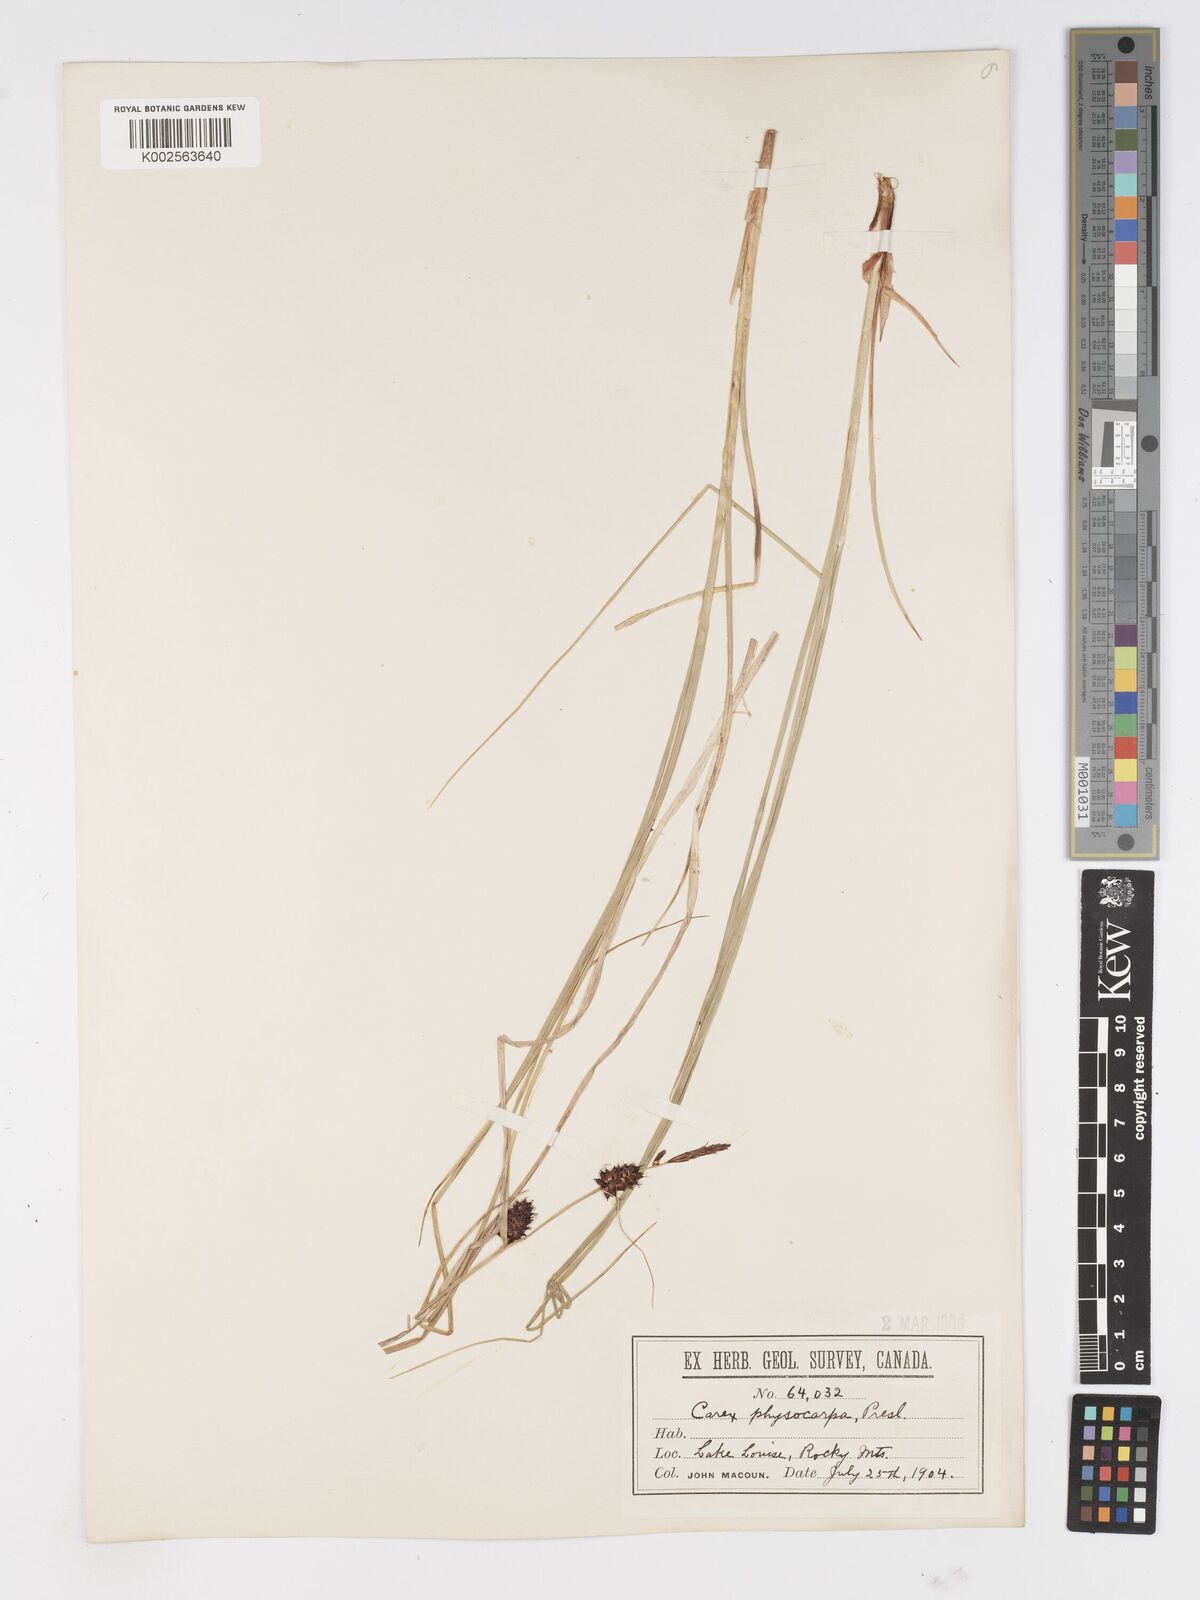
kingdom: Plantae
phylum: Tracheophyta
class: Liliopsida
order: Poales
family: Cyperaceae
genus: Carex
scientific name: Carex saxatilis
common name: Russet sedge
